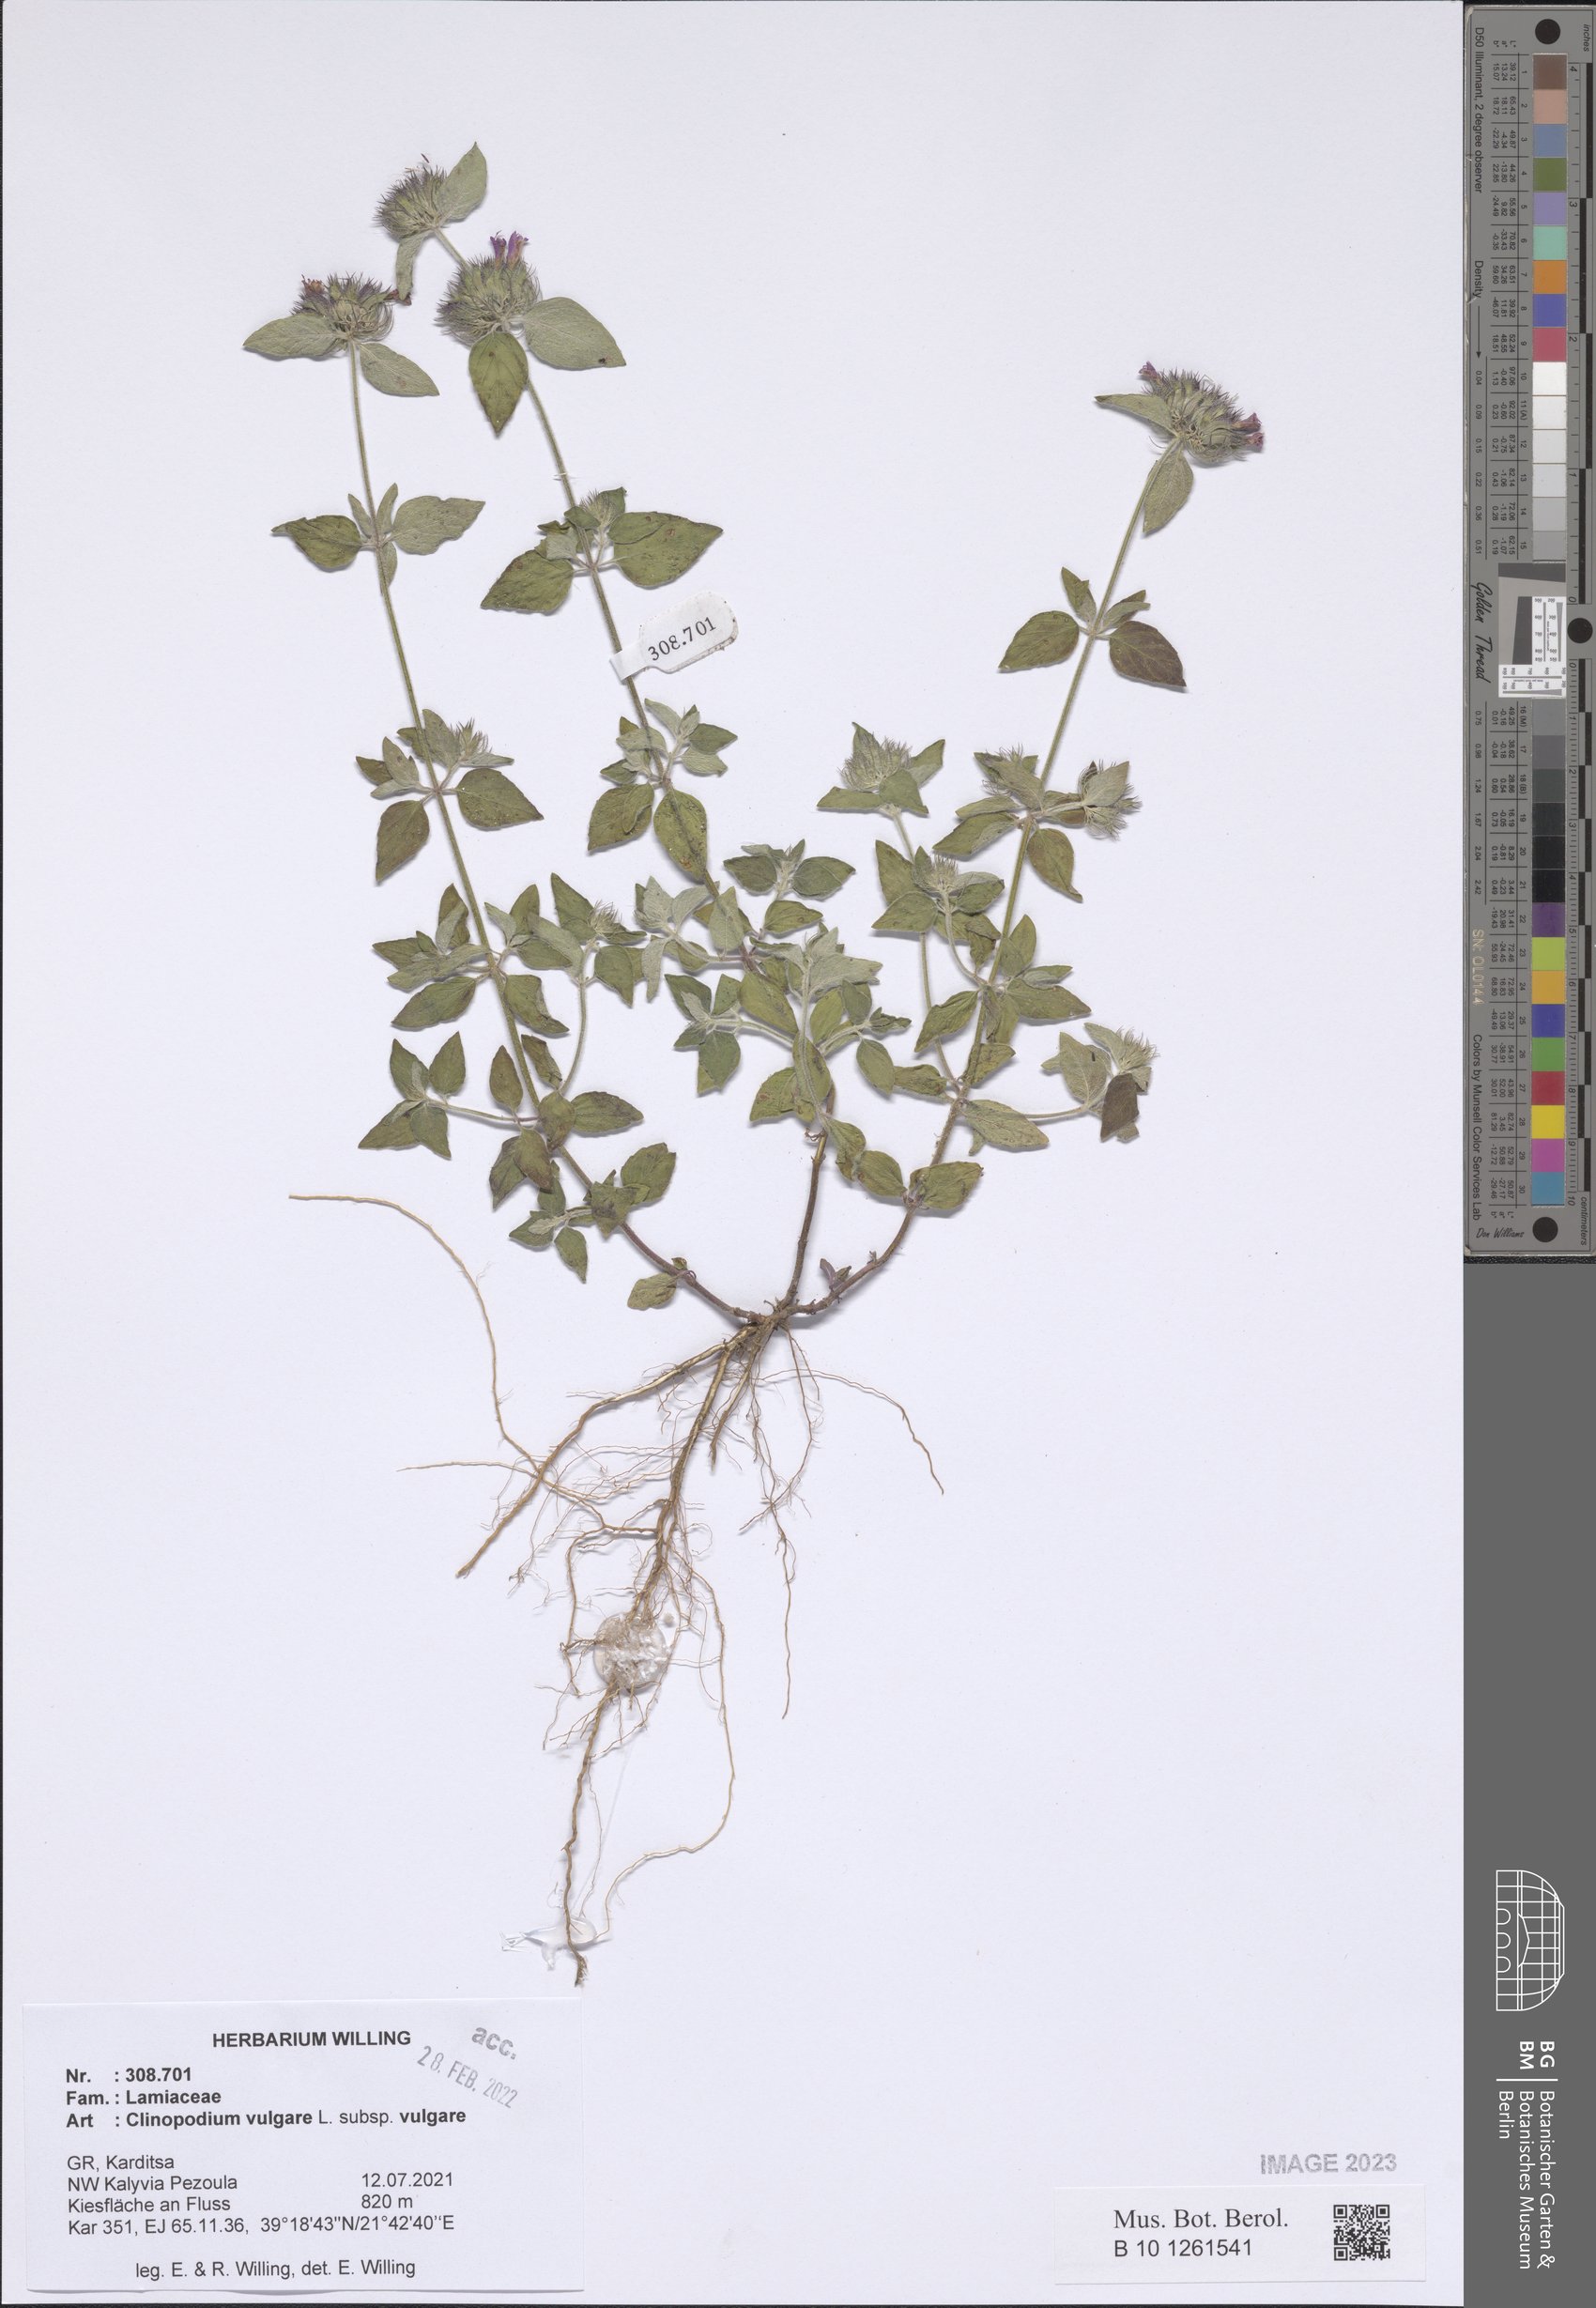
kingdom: Plantae
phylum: Tracheophyta
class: Magnoliopsida
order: Lamiales
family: Lamiaceae
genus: Clinopodium
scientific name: Clinopodium vulgare
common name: Wild basil
